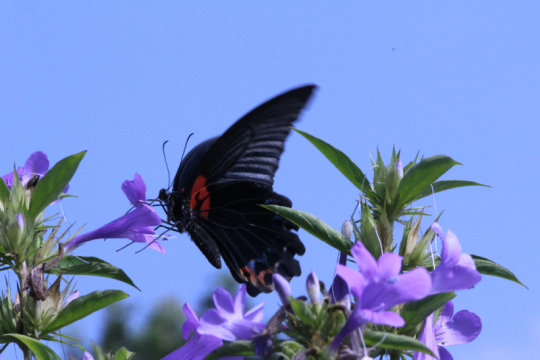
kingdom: Animalia
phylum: Arthropoda
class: Insecta
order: Lepidoptera
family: Papilionidae
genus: Papilio
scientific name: Papilio memnon
